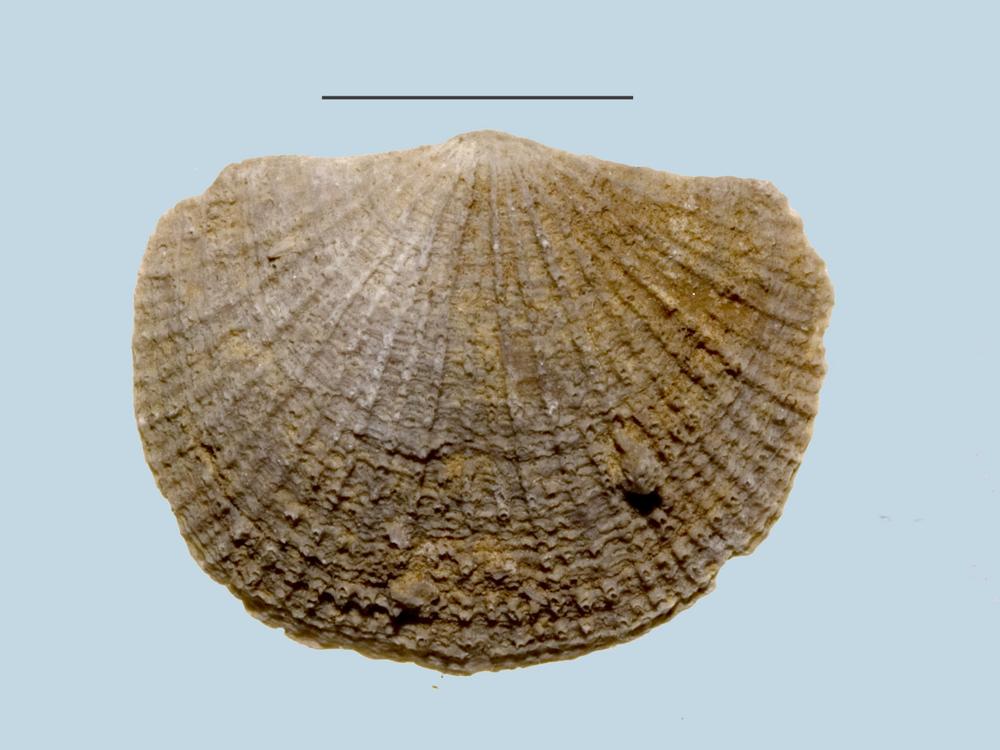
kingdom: Animalia
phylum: Brachiopoda
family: Gonambonitidae
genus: Estlandia
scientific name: Estlandia Orthisina marginata
